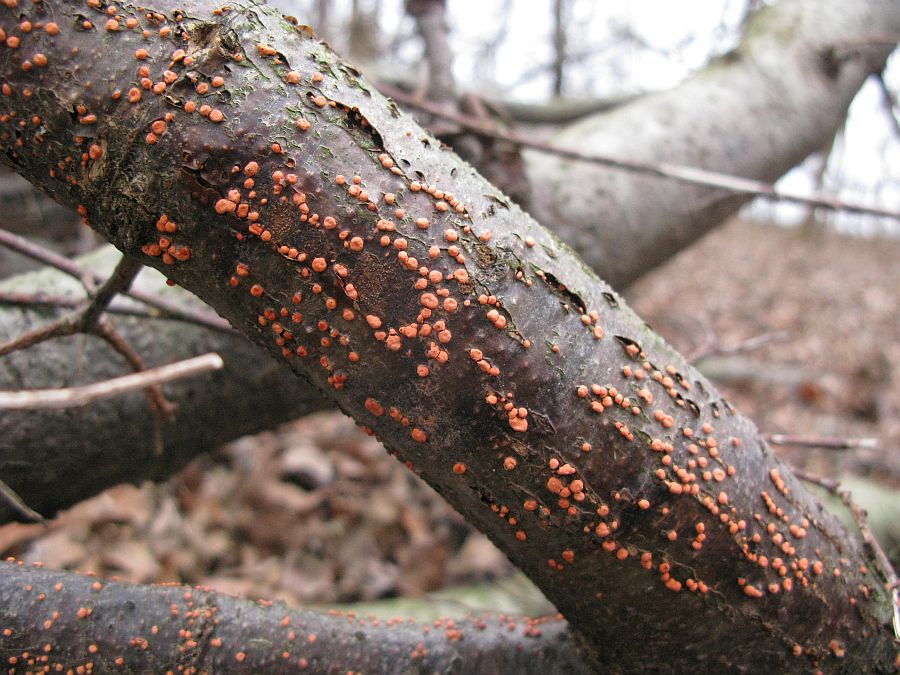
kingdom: Fungi
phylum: Ascomycota
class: Sordariomycetes
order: Hypocreales
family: Nectriaceae
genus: Nectria
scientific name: Nectria cinnabarina
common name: almindelig cinnobersvamp
